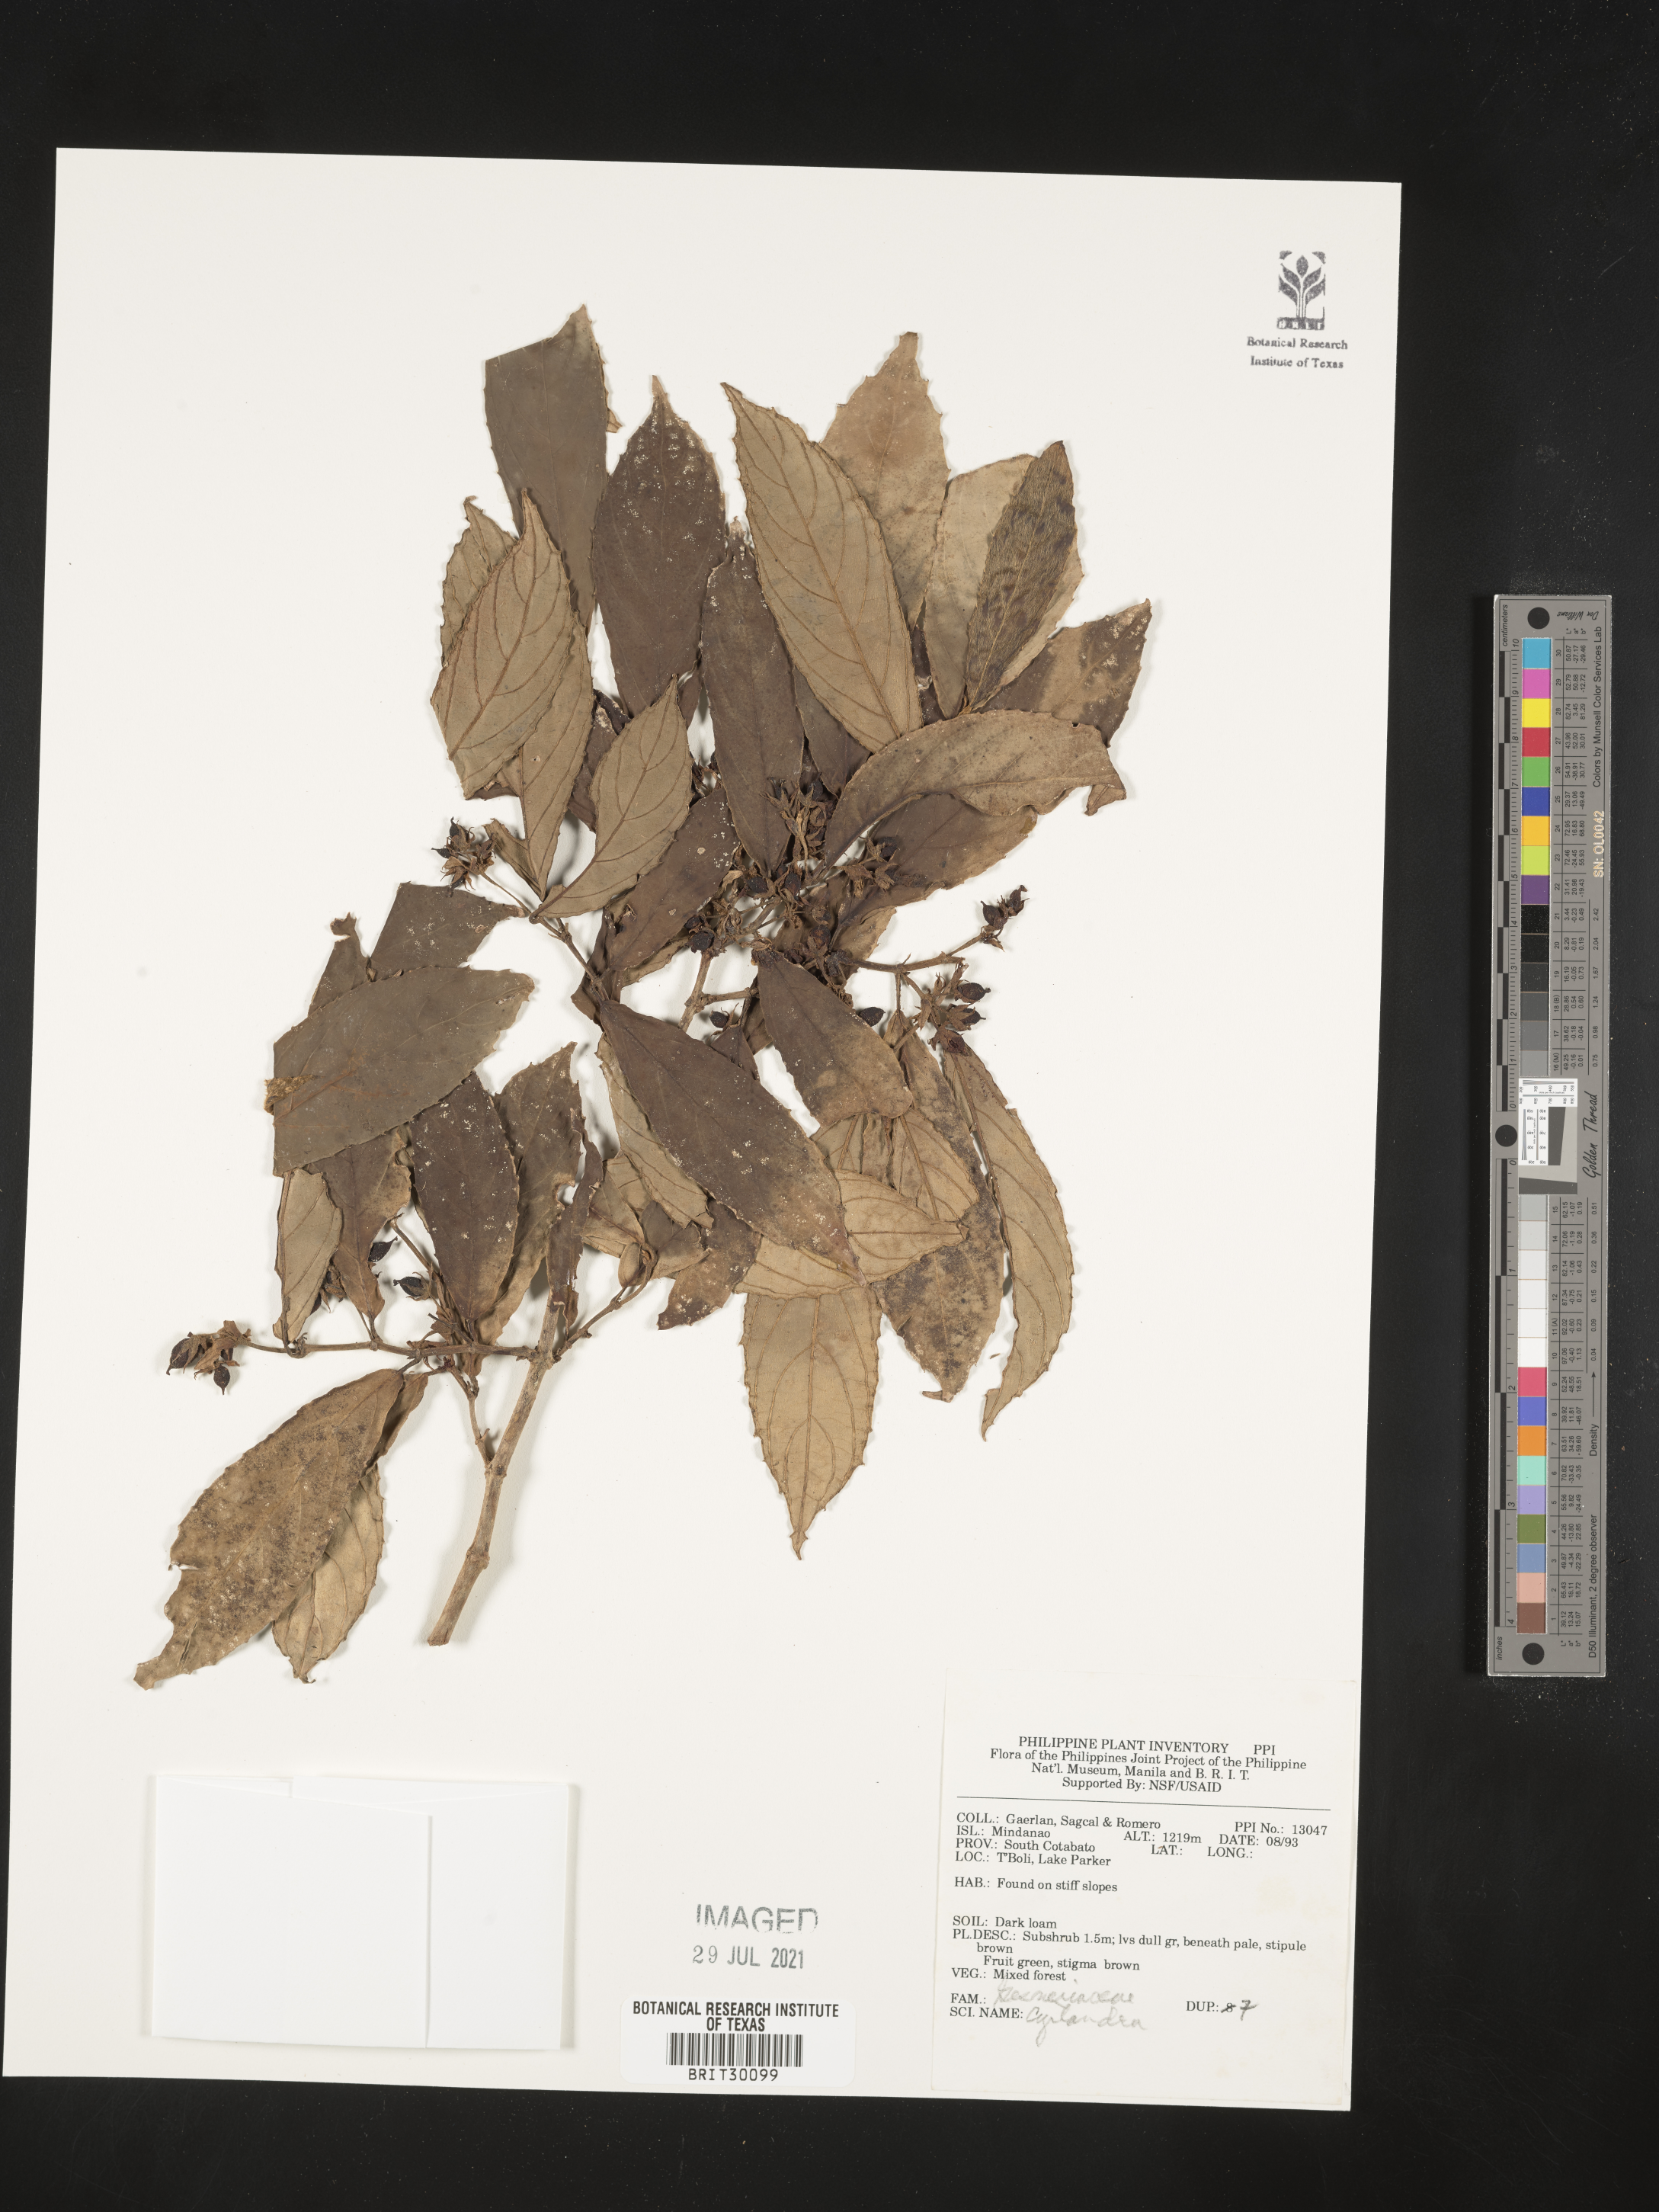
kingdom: Plantae
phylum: Tracheophyta
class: Magnoliopsida
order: Lamiales
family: Gesneriaceae
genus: Cyrtandra
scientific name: Cyrtandra
